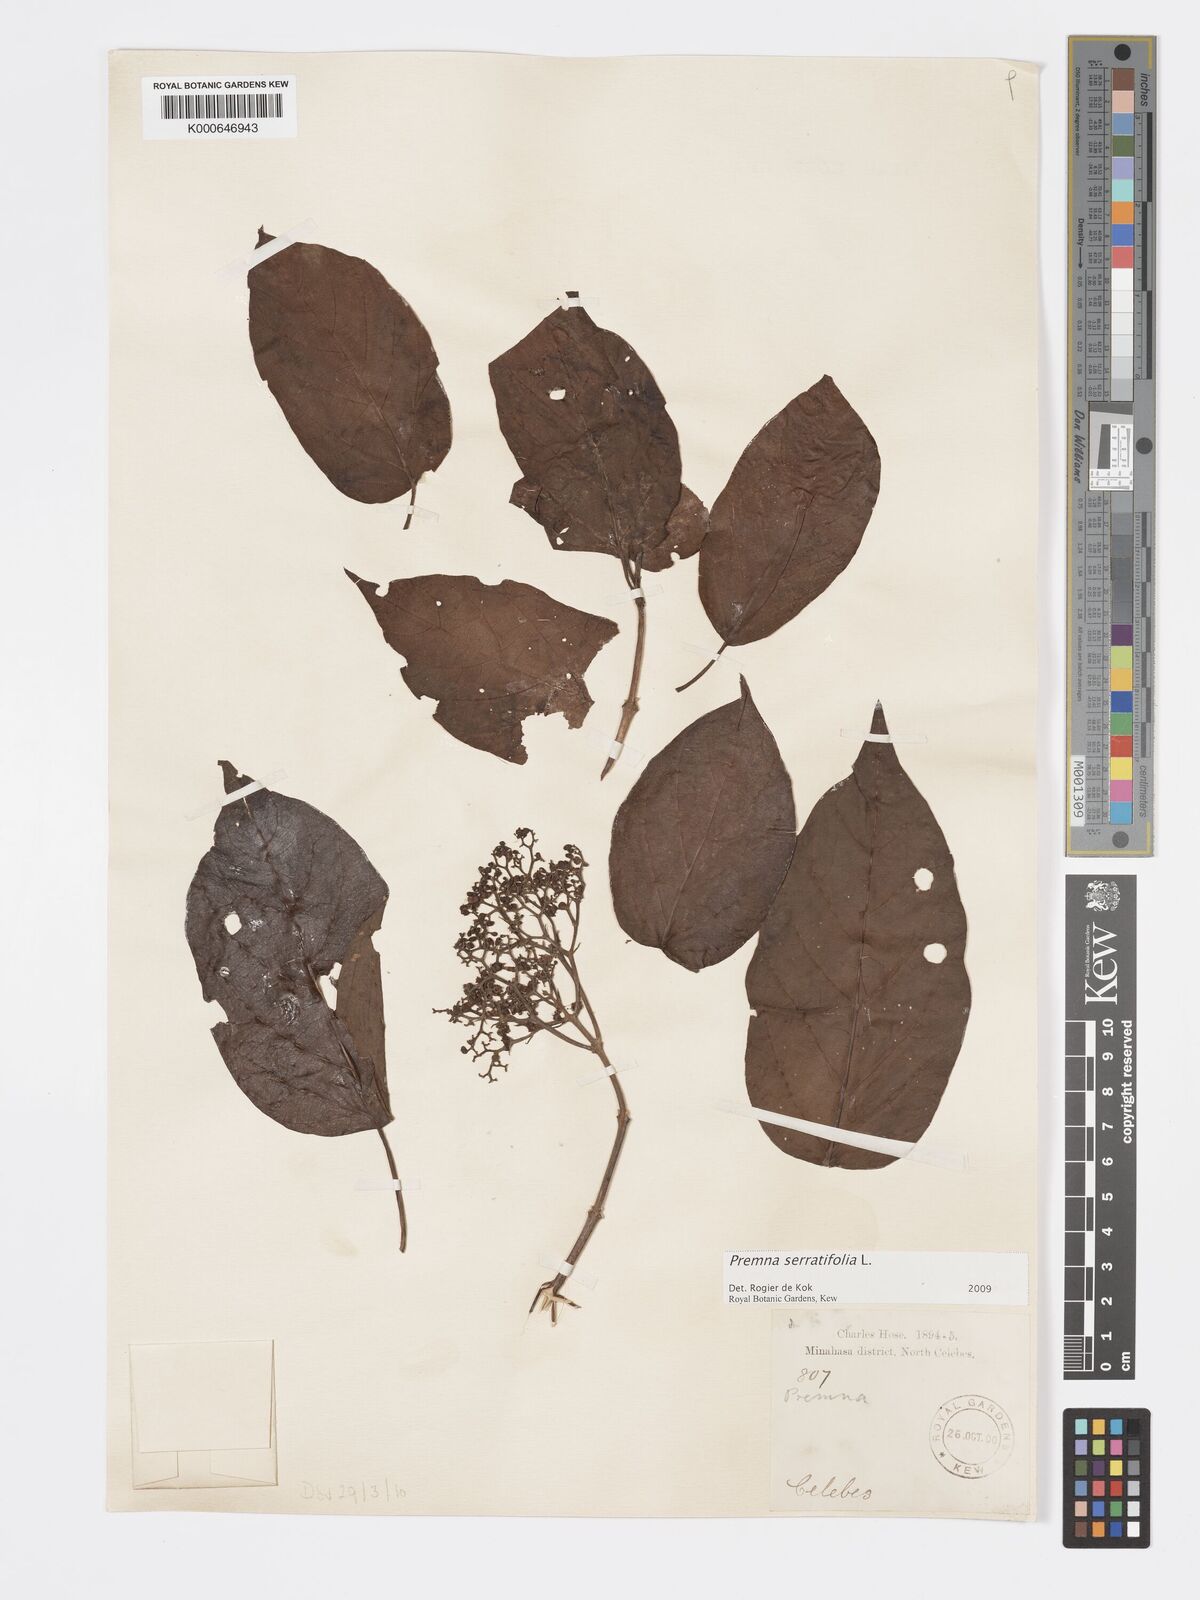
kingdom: Plantae
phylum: Tracheophyta
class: Magnoliopsida
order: Lamiales
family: Lamiaceae
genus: Premna
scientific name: Premna serratifolia
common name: Bastard guelder
